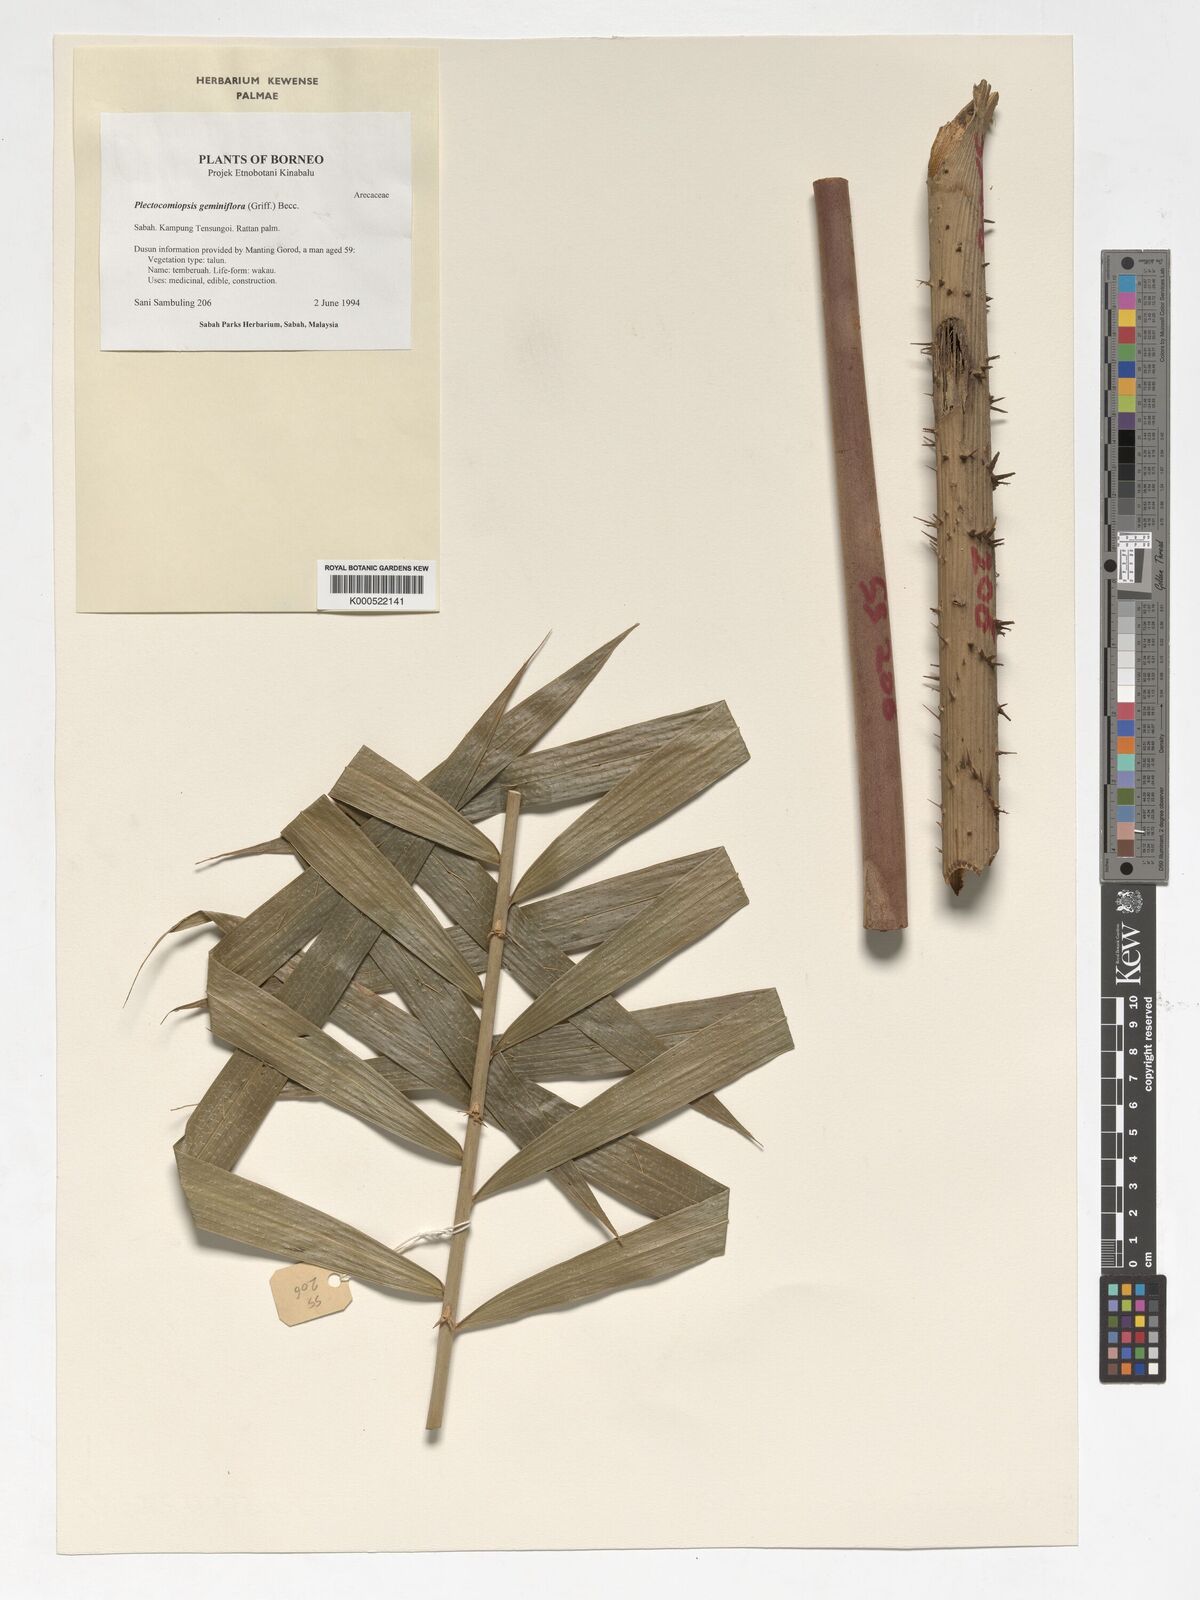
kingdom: Plantae
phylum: Tracheophyta
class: Liliopsida
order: Arecales
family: Arecaceae
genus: Plectocomiopsis
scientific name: Plectocomiopsis geminiflora
